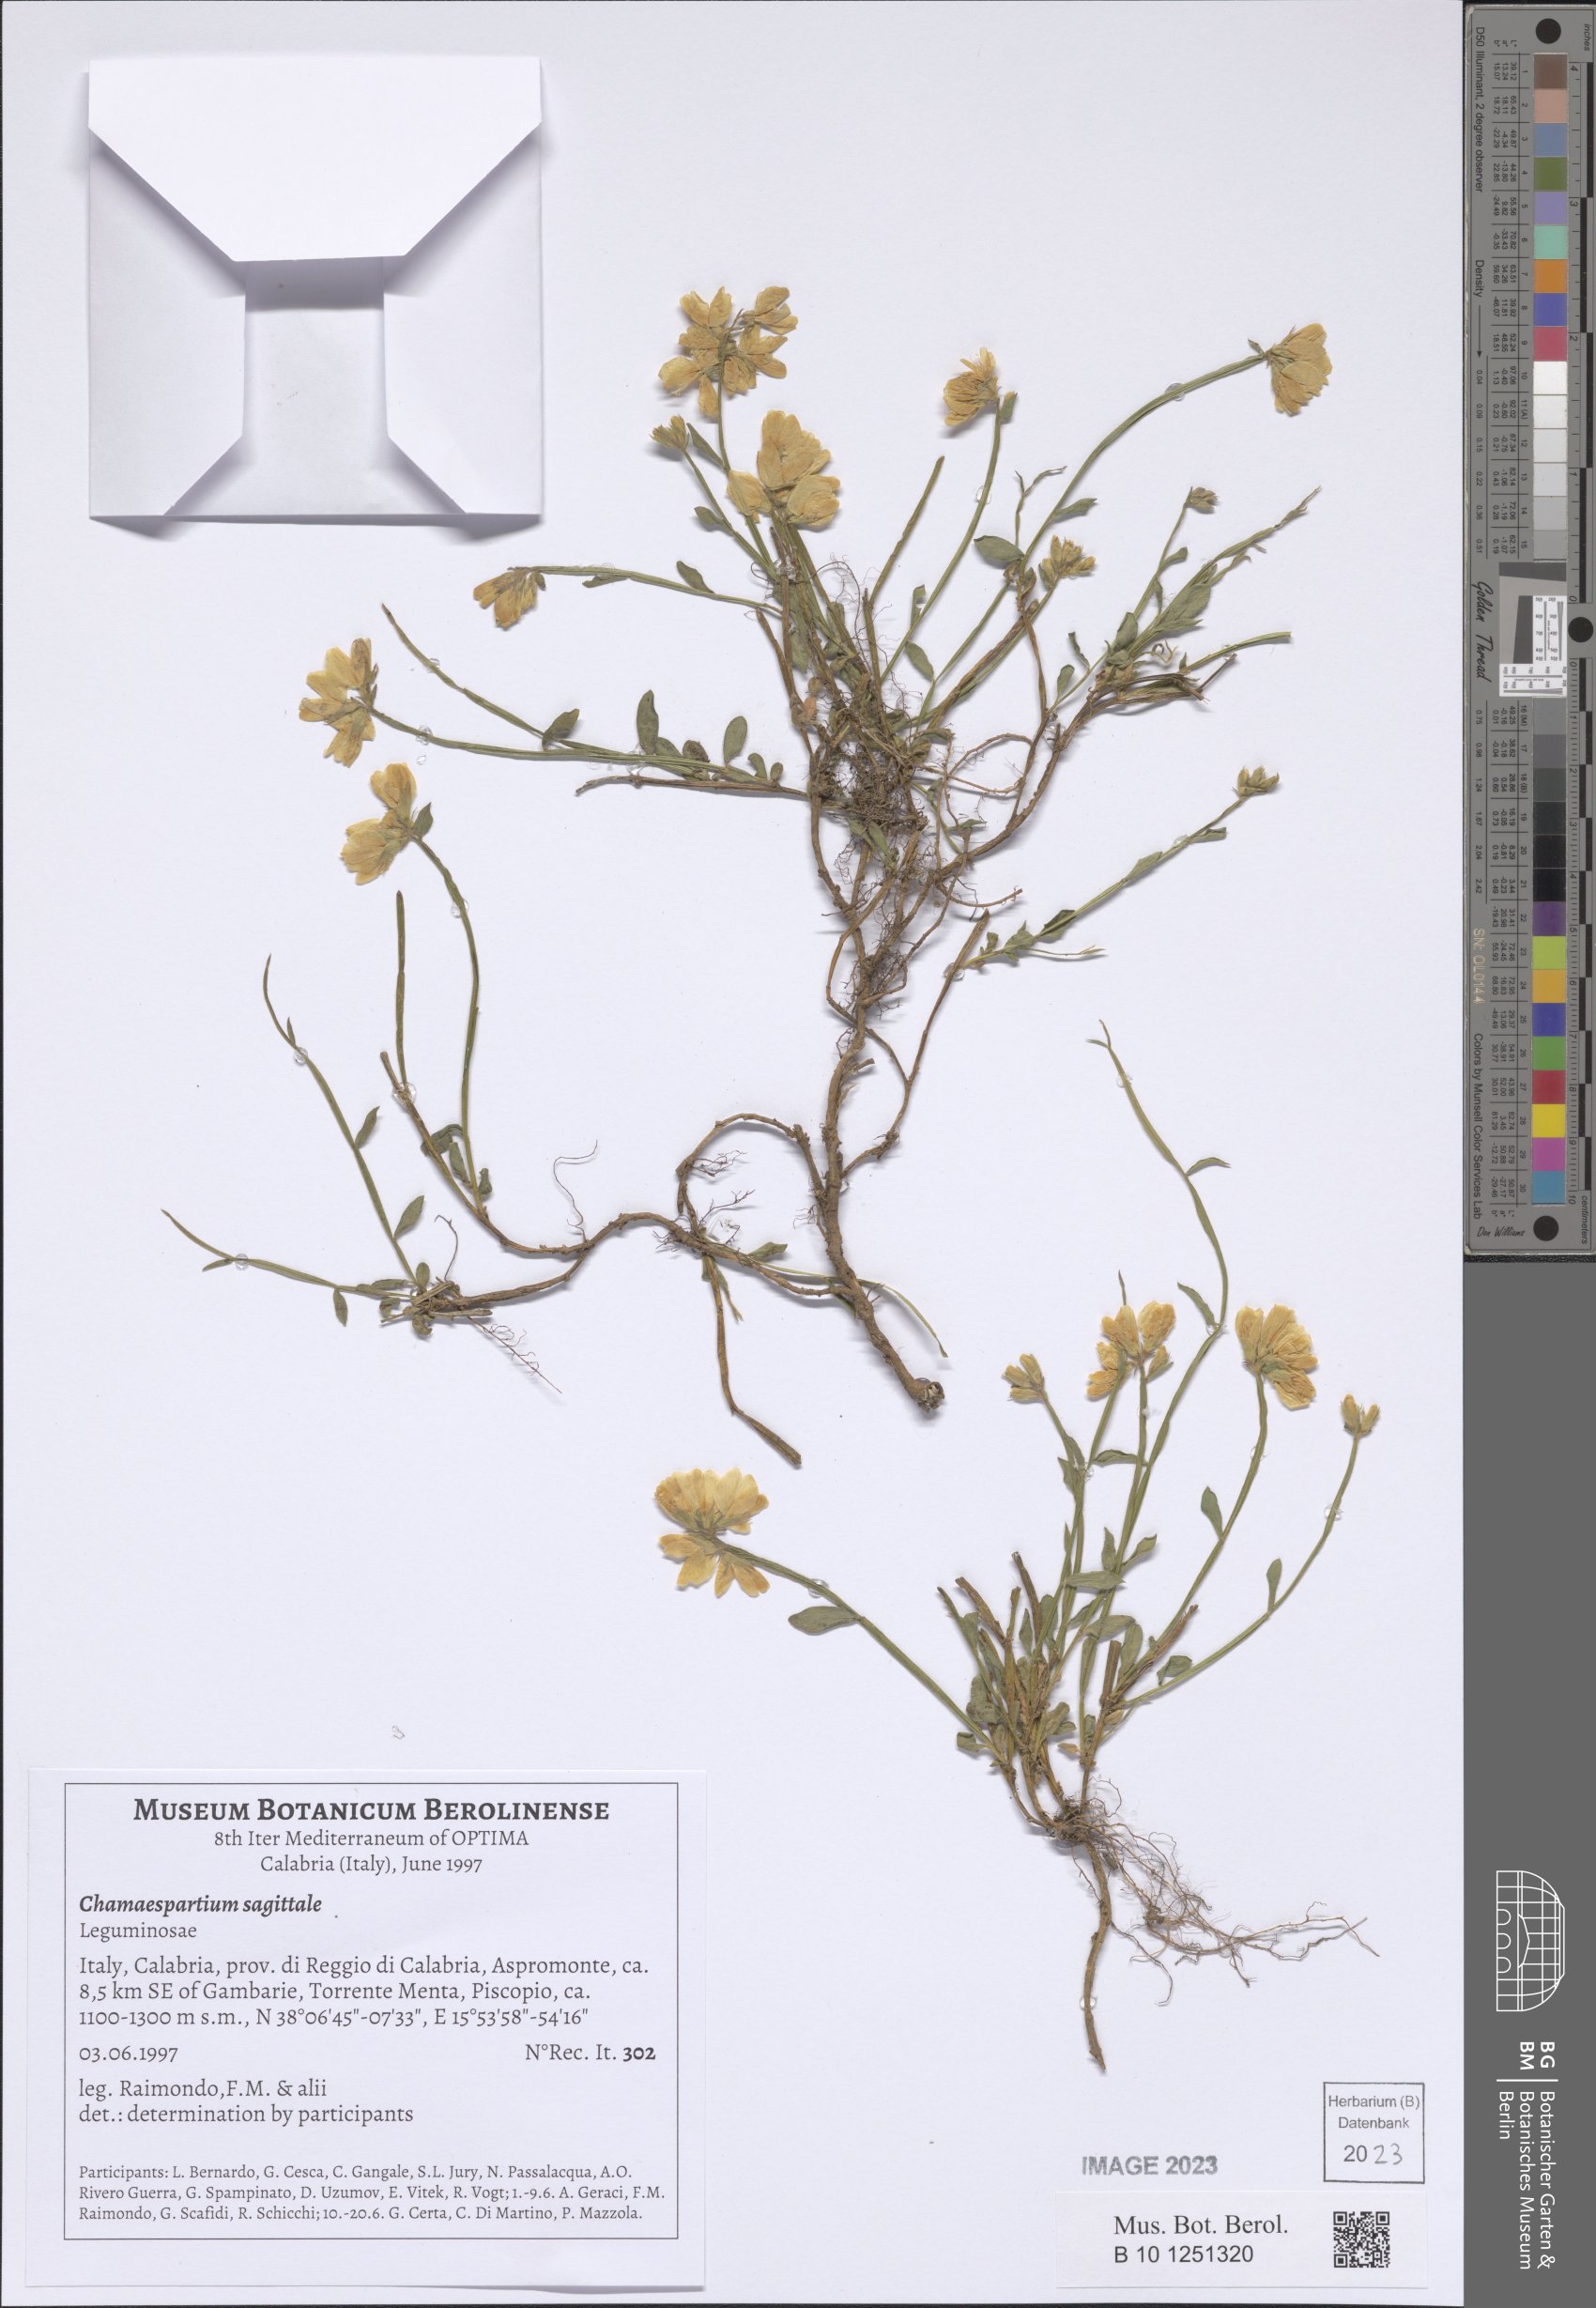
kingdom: Plantae
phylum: Tracheophyta
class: Magnoliopsida
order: Fabales
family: Fabaceae
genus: Genista
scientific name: Genista sagittalis
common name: Winged greenweed
